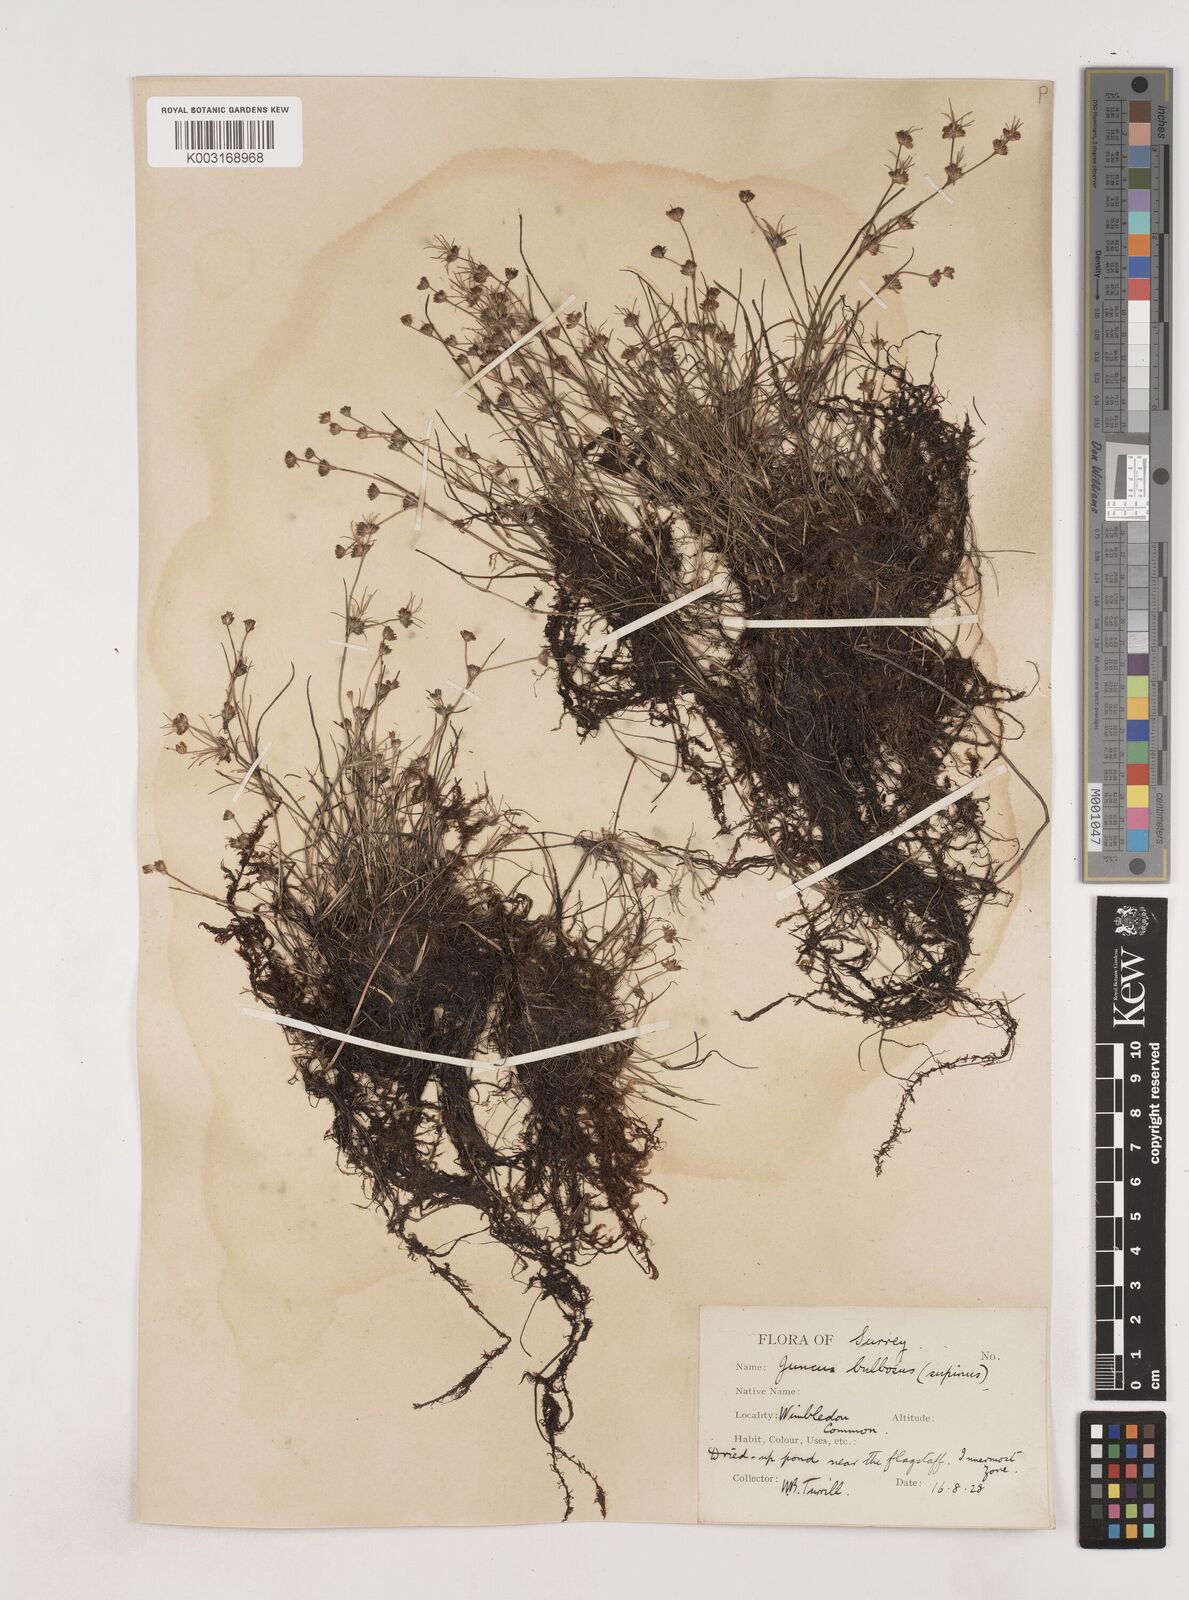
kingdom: Plantae
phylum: Tracheophyta
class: Liliopsida
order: Poales
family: Juncaceae
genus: Juncus
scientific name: Juncus bulbosus
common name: Bulbous rush
